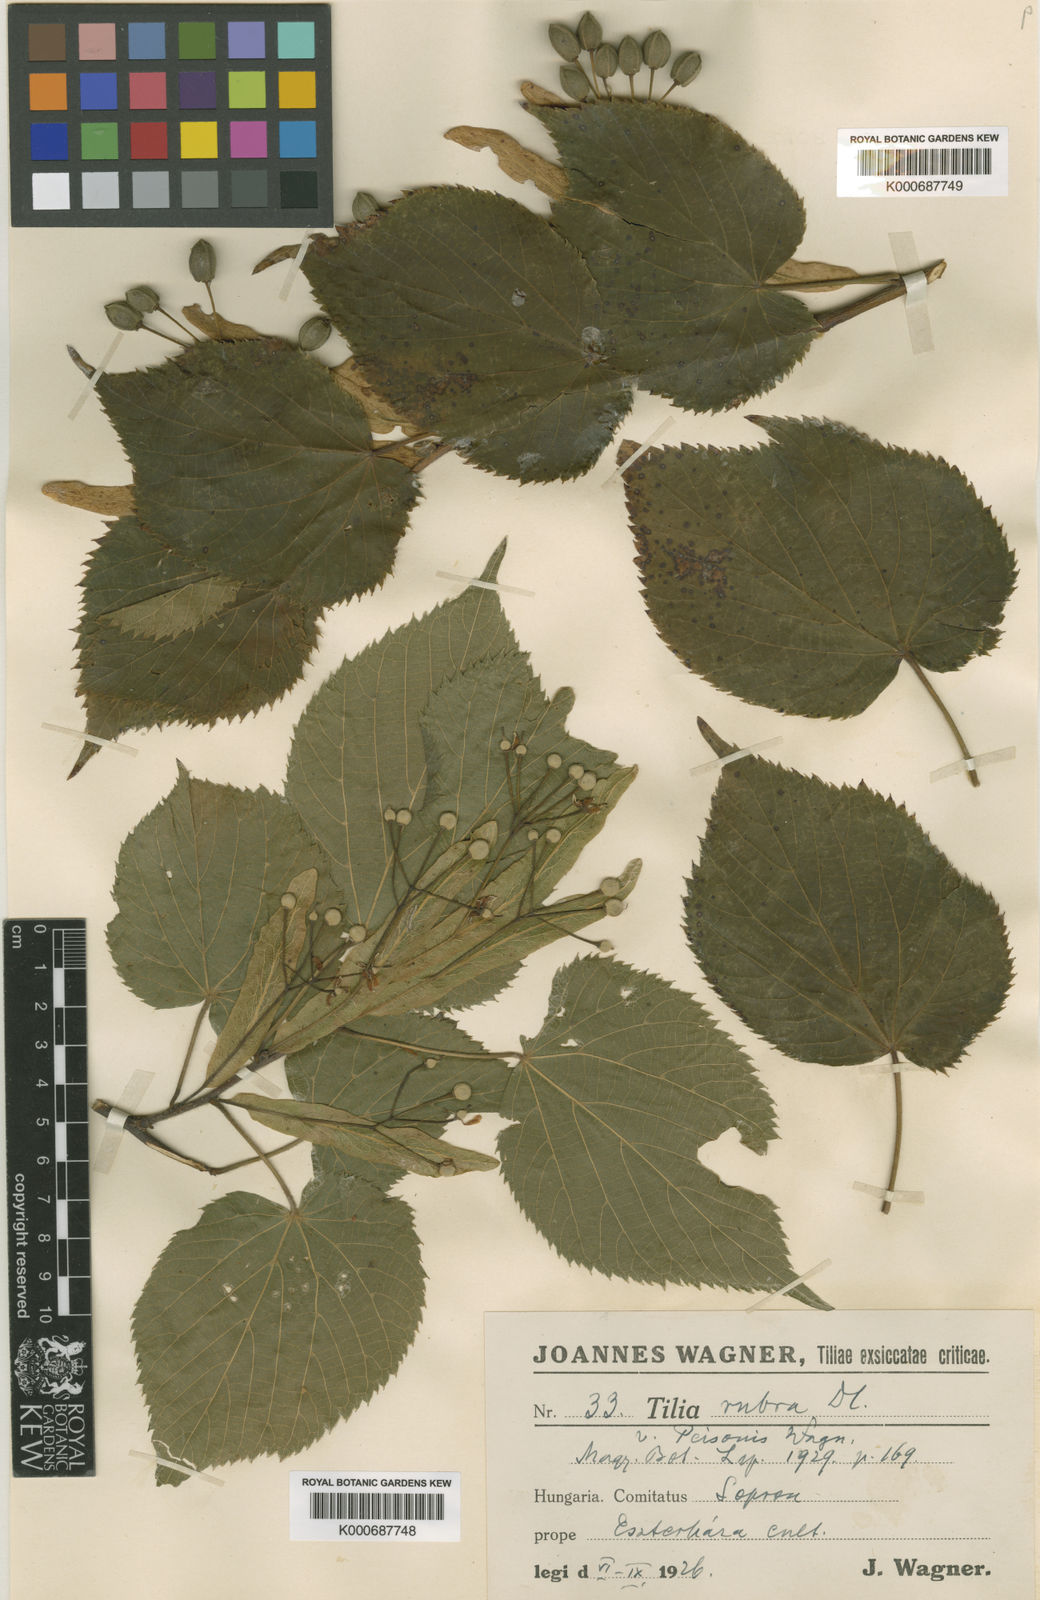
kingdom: Plantae
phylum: Tracheophyta
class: Magnoliopsida
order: Malvales
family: Malvaceae
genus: Tilia
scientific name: Tilia platyphyllos
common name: Large-leaved lime
